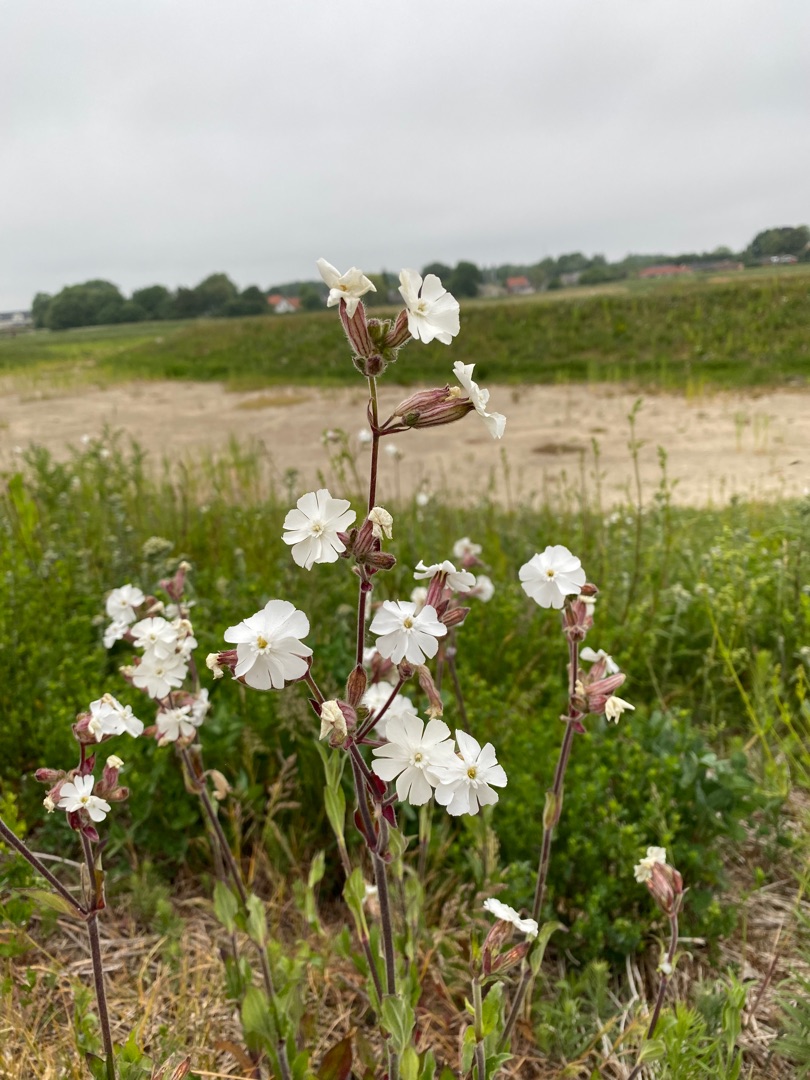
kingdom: Plantae
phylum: Tracheophyta
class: Magnoliopsida
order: Caryophyllales
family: Caryophyllaceae
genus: Silene
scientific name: Silene latifolia
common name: Aftenpragtstjerne
